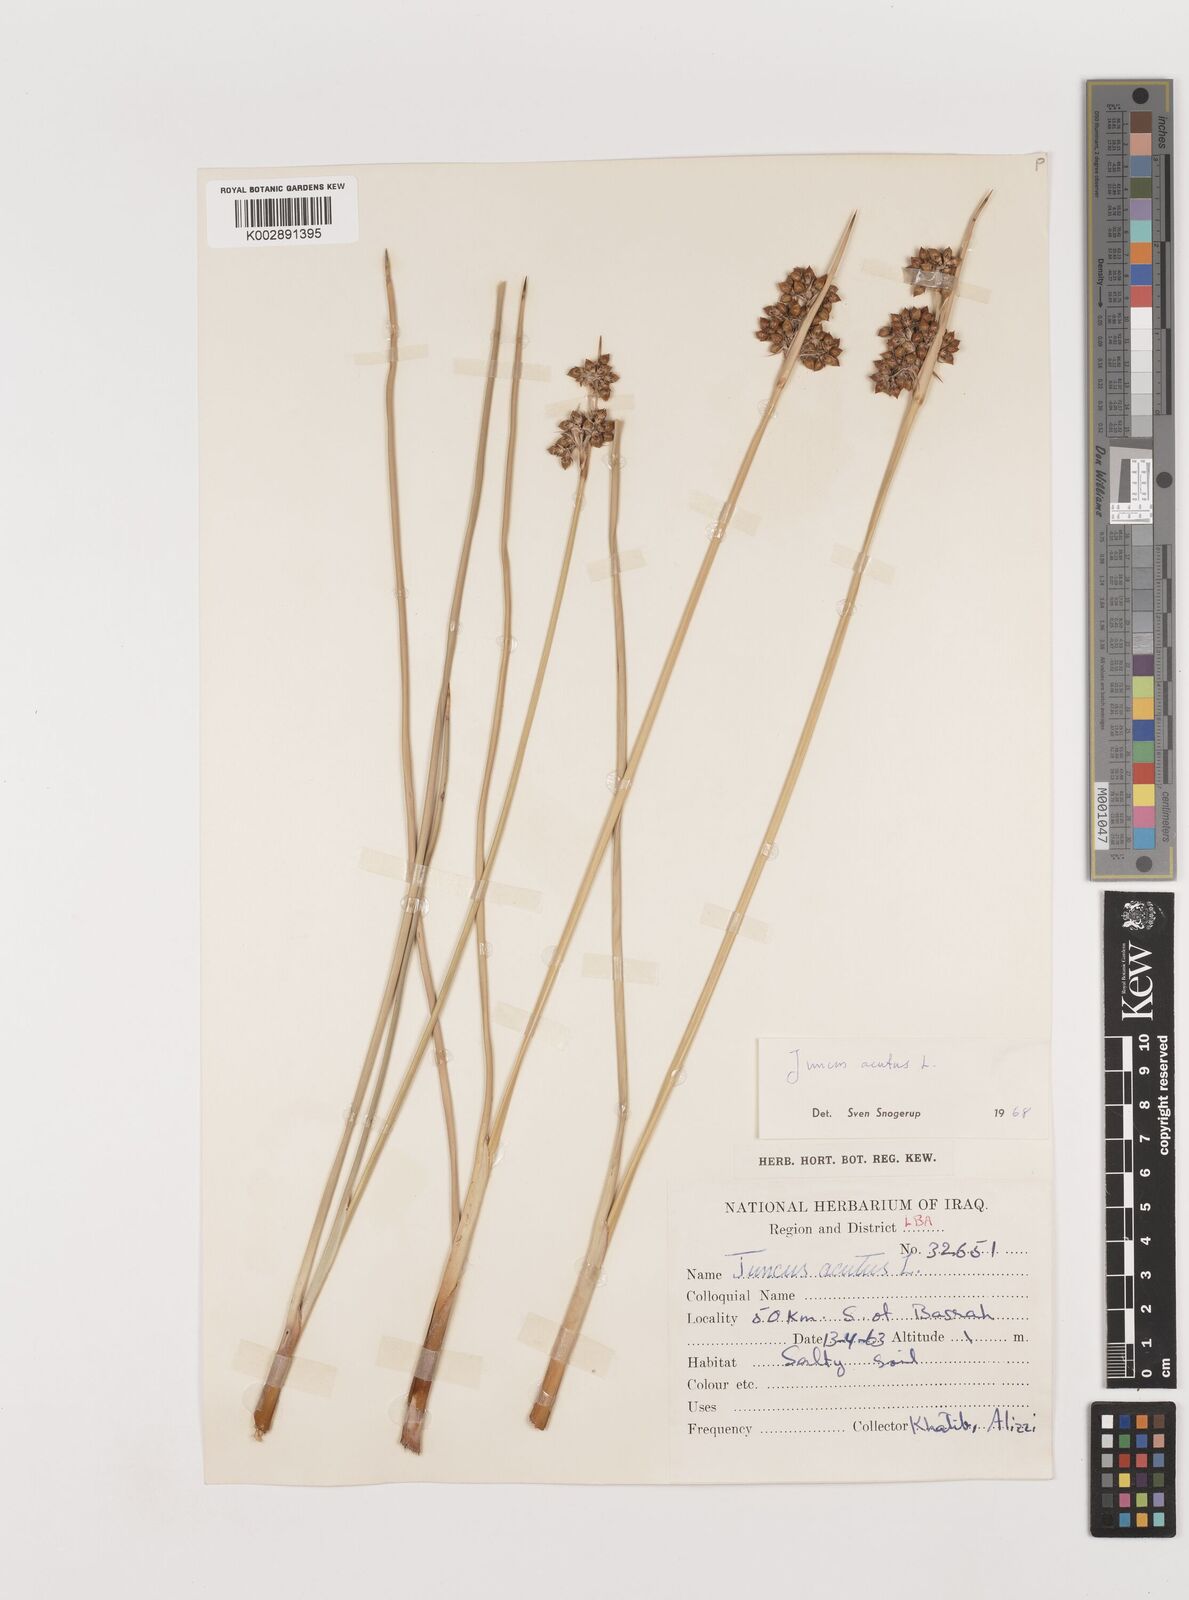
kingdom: Plantae
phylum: Tracheophyta
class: Liliopsida
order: Poales
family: Juncaceae
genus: Juncus
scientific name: Juncus acutus
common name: Sharp rush
